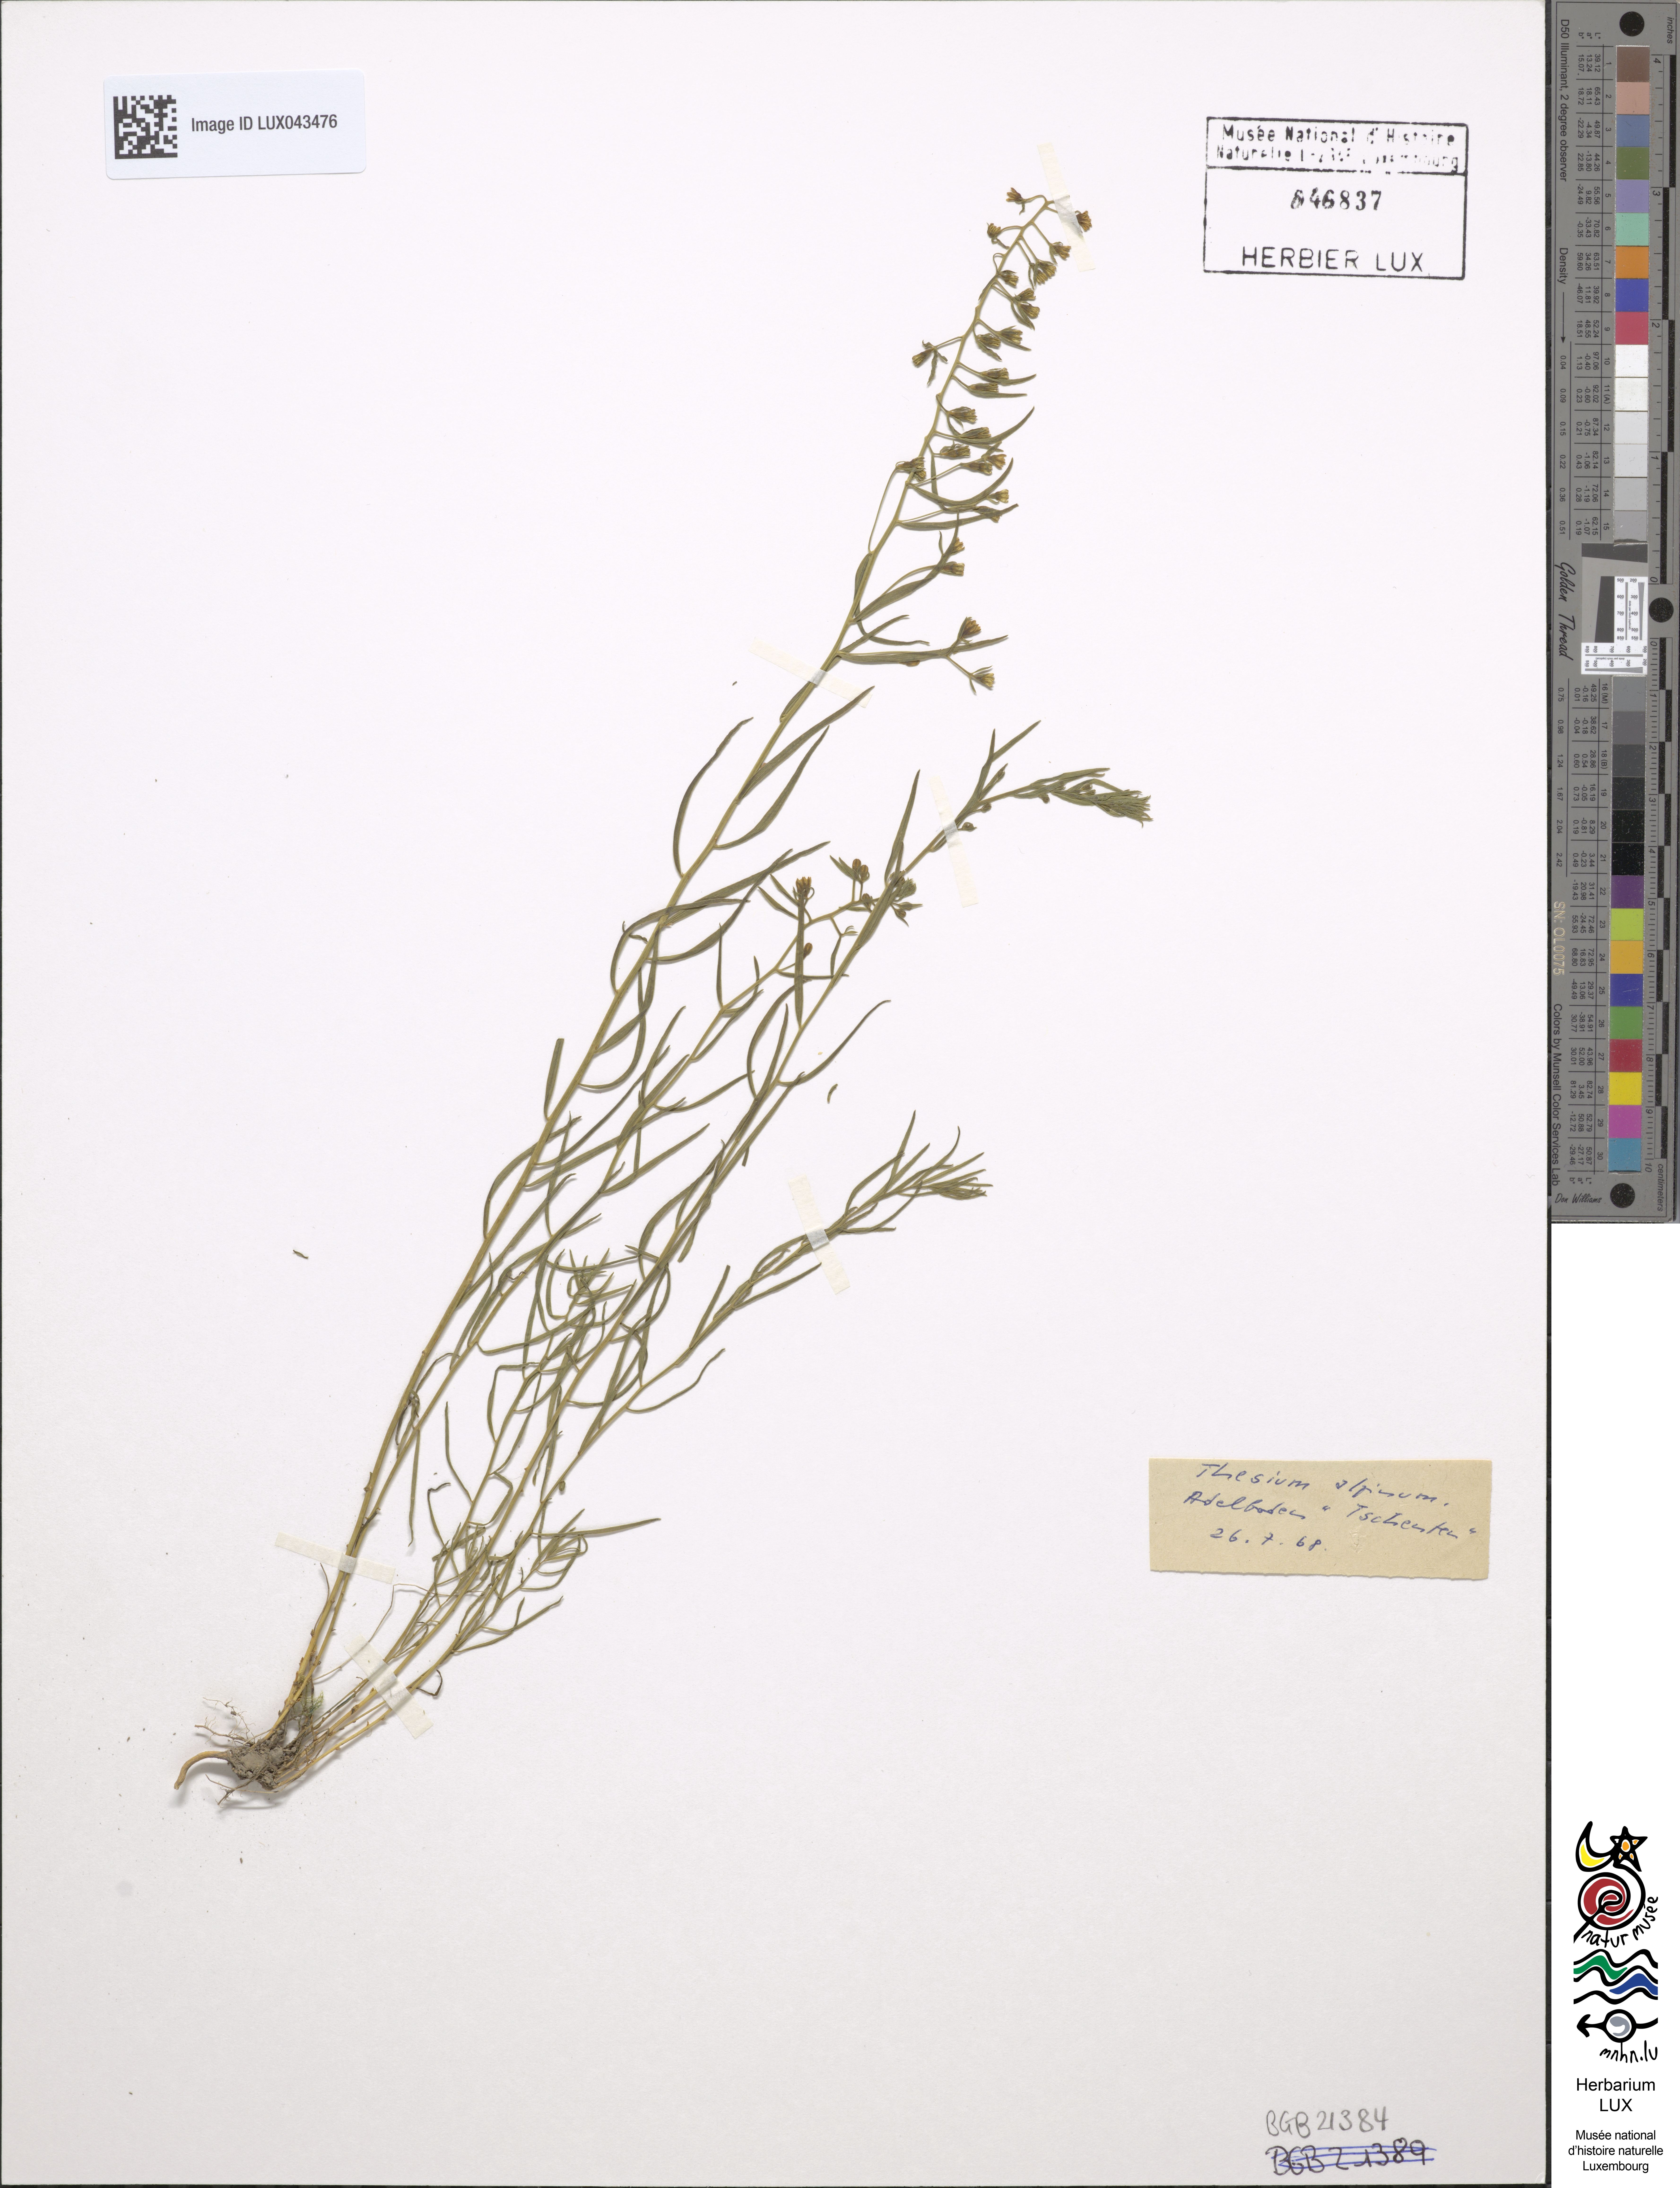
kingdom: Plantae
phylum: Tracheophyta
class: Magnoliopsida
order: Santalales
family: Thesiaceae
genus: Thesium
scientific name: Thesium alpinum
